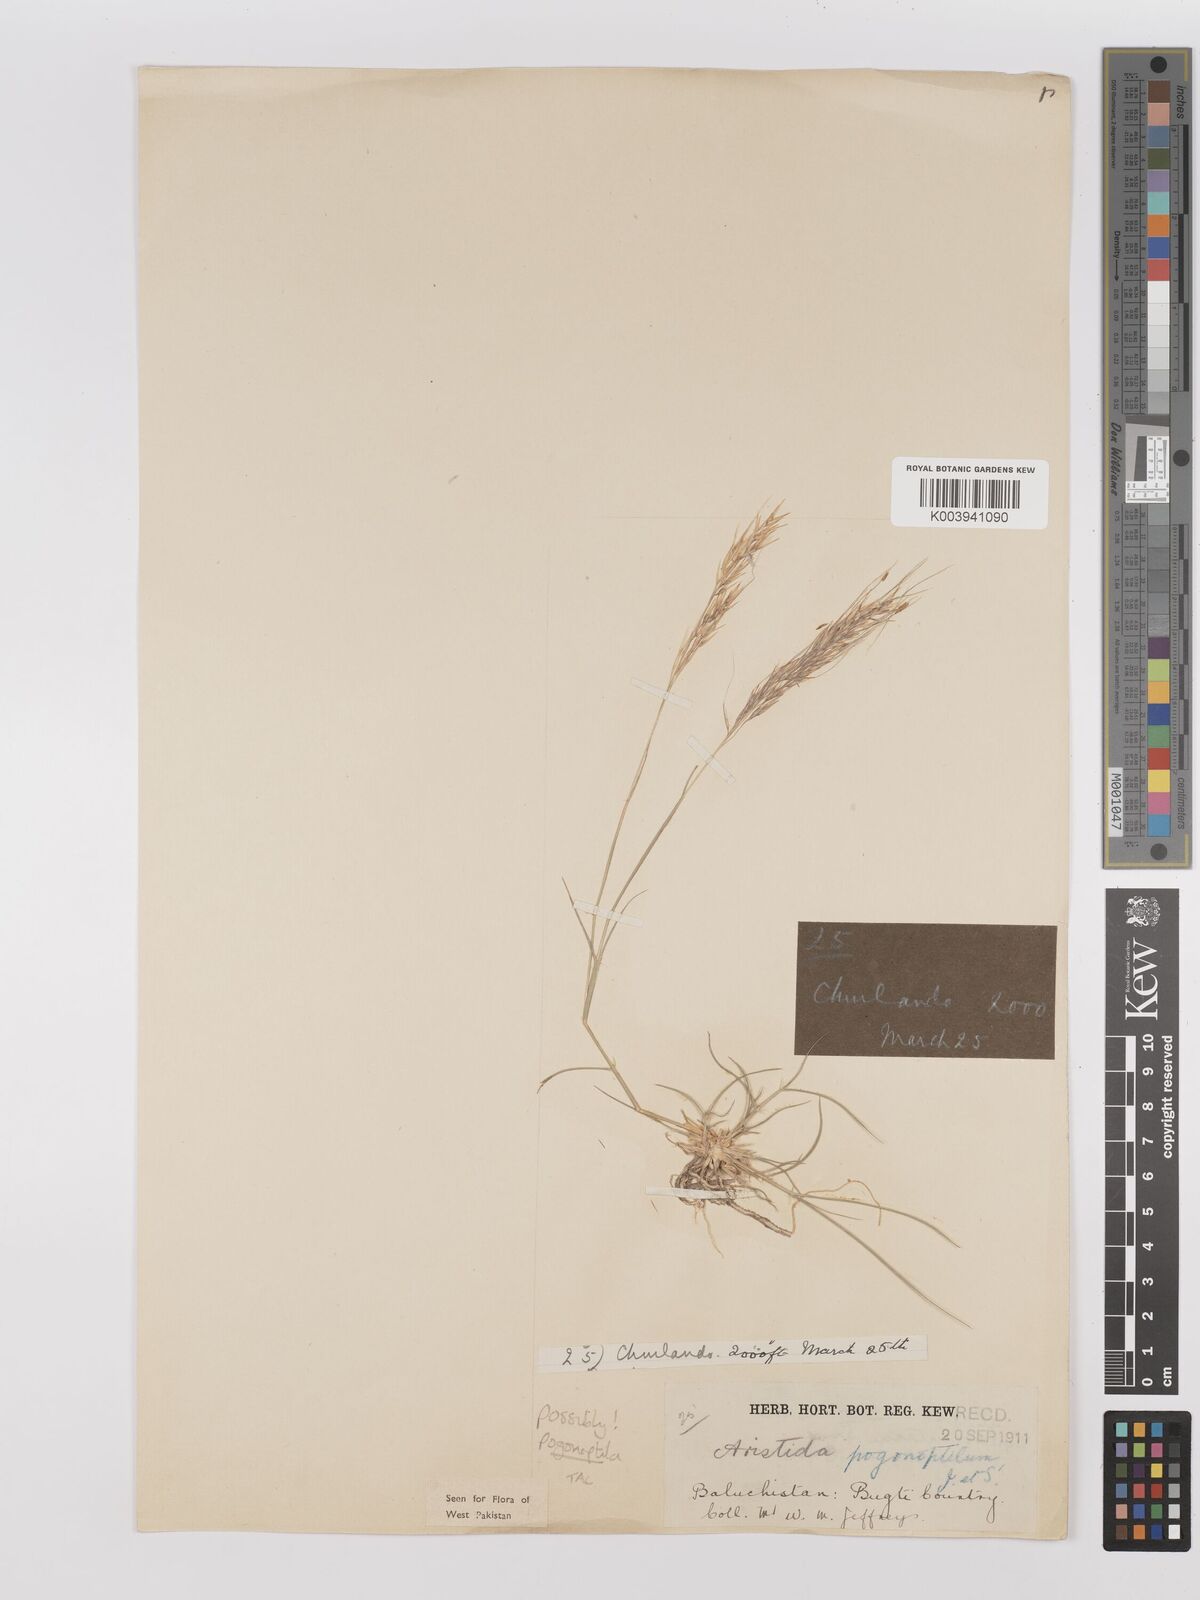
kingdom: Plantae
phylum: Tracheophyta
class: Liliopsida
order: Poales
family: Poaceae
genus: Stipagrostis
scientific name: Stipagrostis uniplumis
